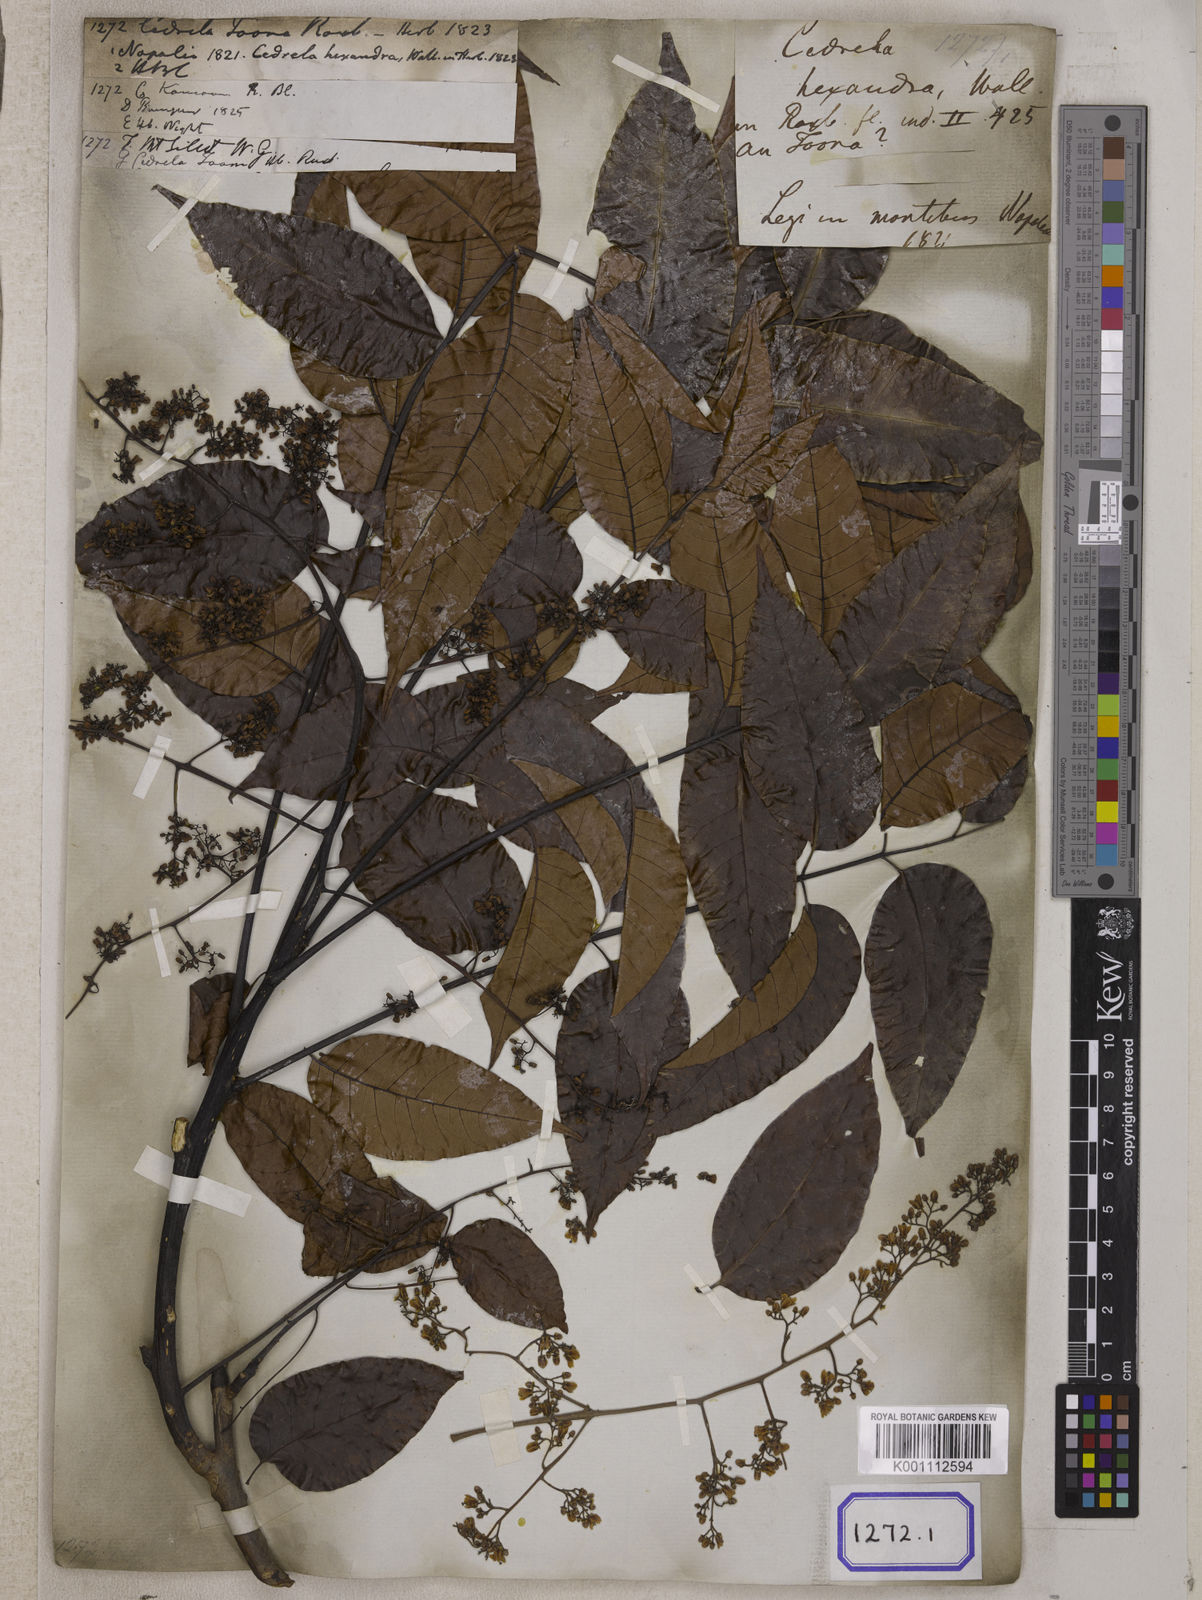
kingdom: Plantae
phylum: Tracheophyta
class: Magnoliopsida
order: Sapindales
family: Meliaceae
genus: Cedrela
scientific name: Cedrela
